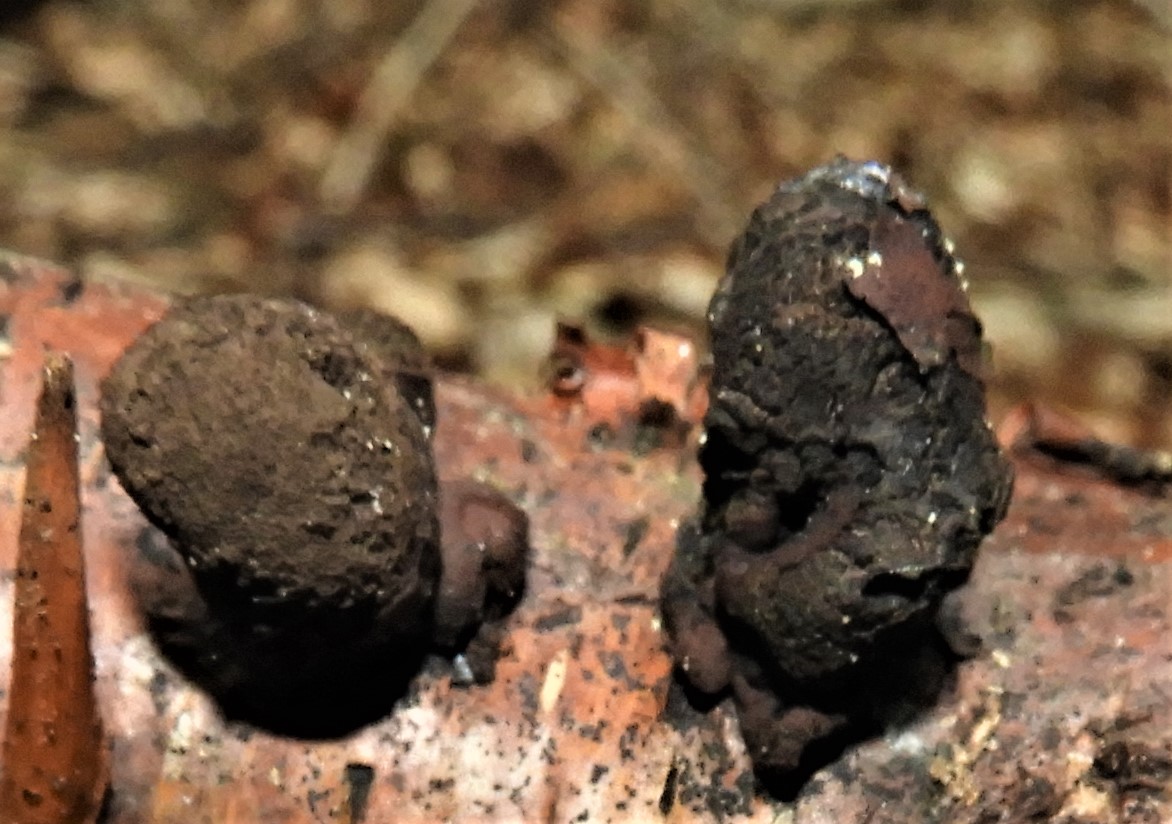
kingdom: Fungi
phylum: Ascomycota
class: Sordariomycetes
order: Xylariales
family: Hypoxylaceae
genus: Daldinia
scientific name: Daldinia
